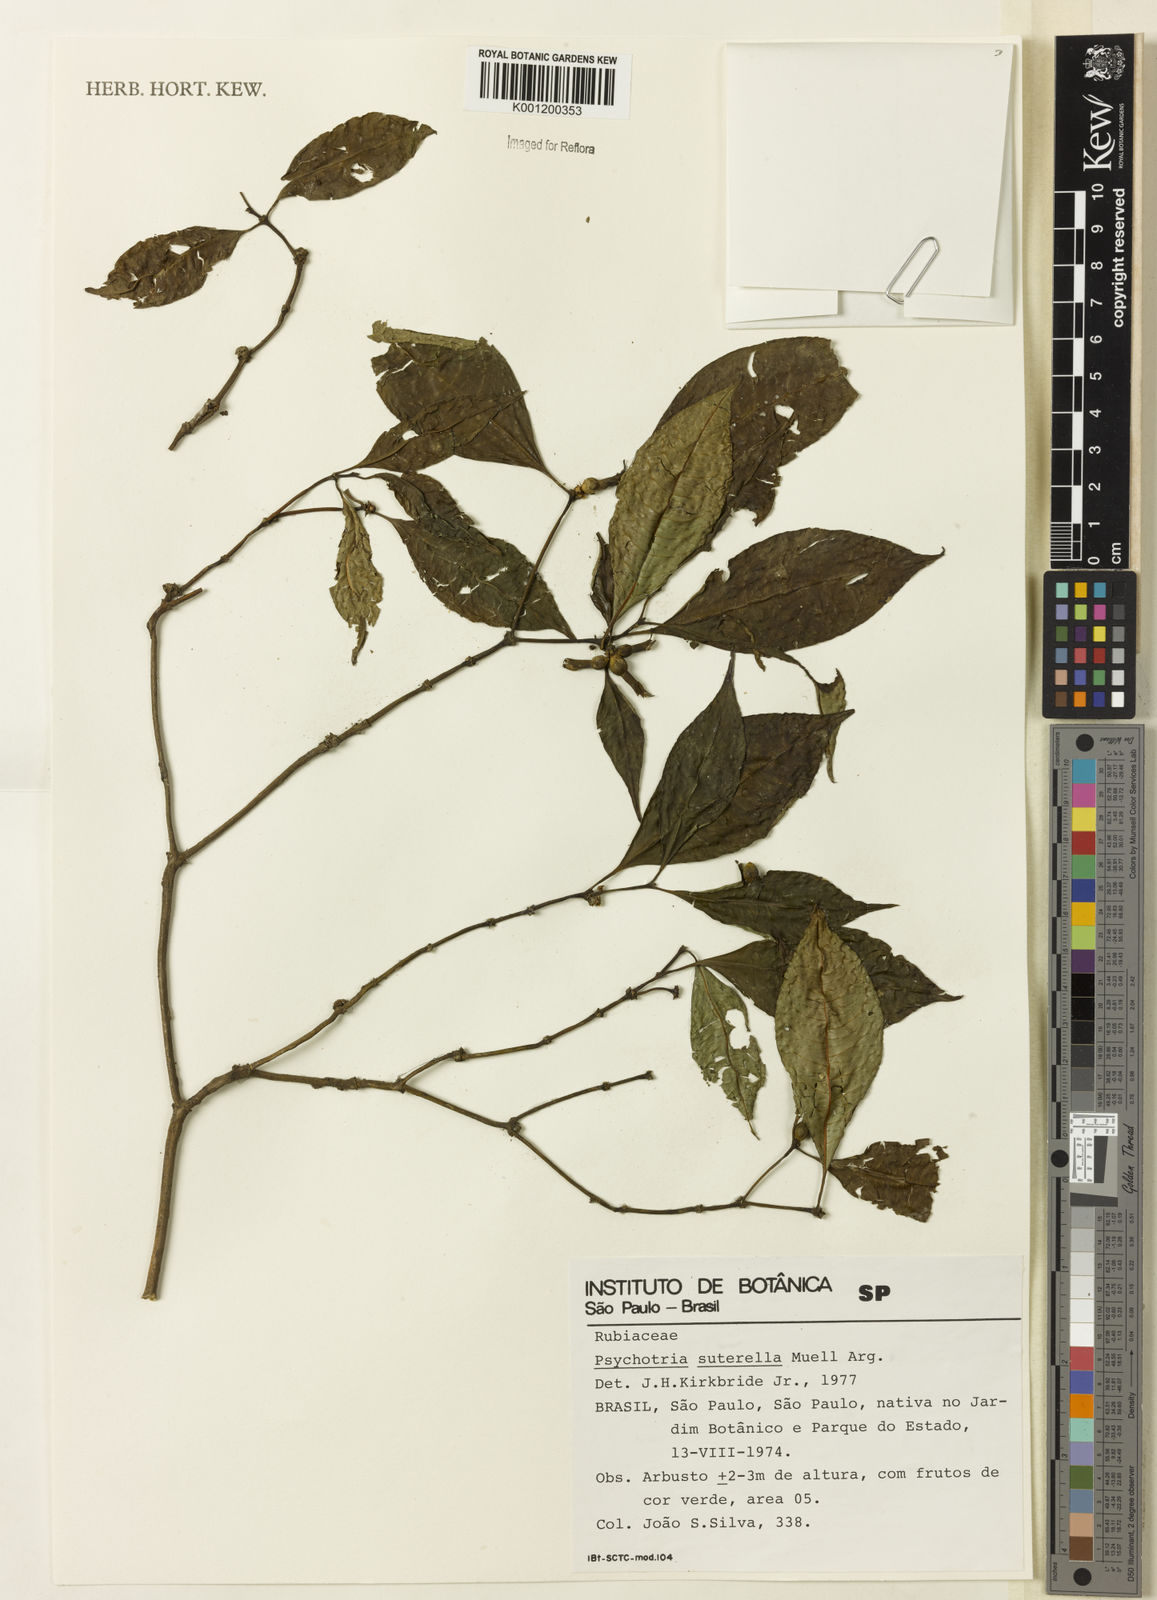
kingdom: Plantae
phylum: Tracheophyta
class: Magnoliopsida
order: Gentianales
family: Rubiaceae
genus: Psychotria
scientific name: Psychotria
